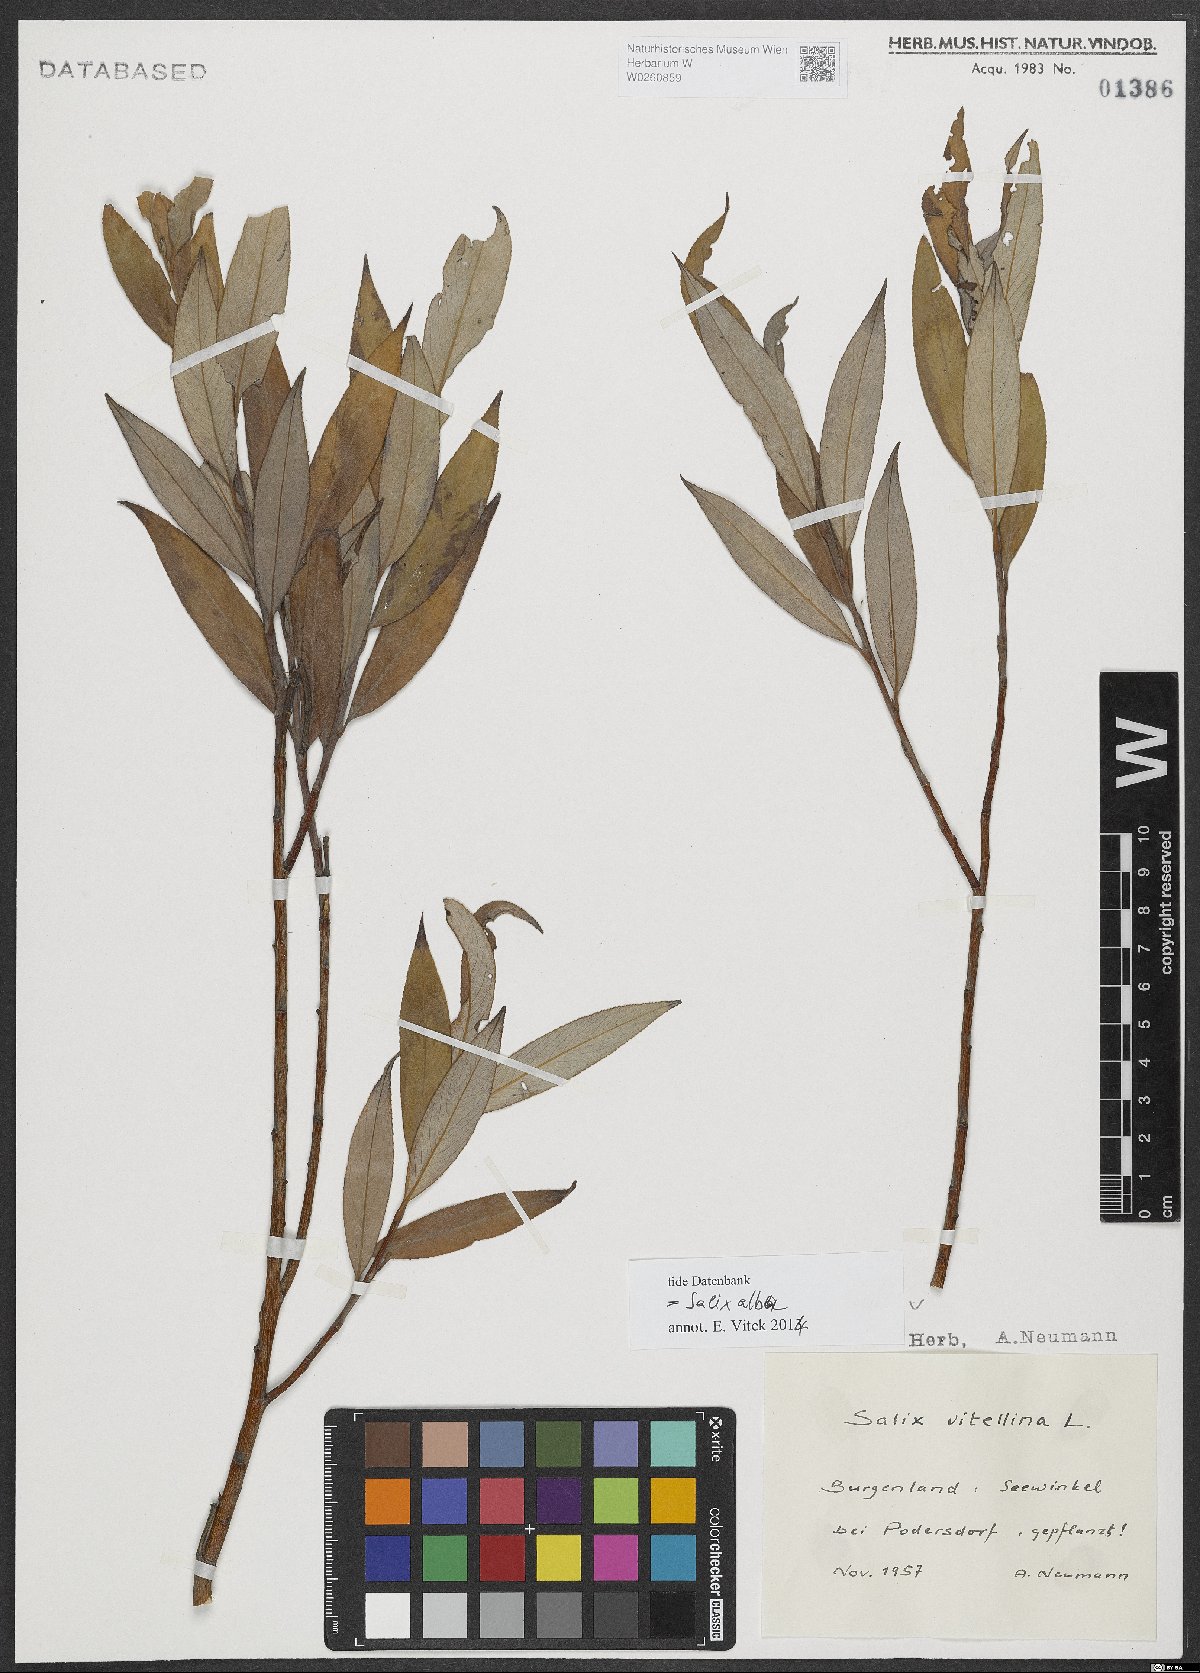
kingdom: Plantae
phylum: Tracheophyta
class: Magnoliopsida
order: Malpighiales
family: Salicaceae
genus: Salix
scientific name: Salix alba
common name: White willow
